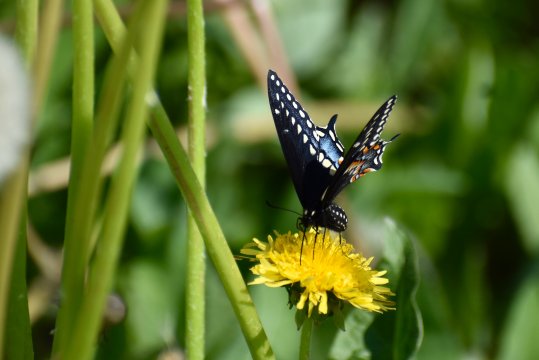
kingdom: Animalia
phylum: Arthropoda
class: Insecta
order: Lepidoptera
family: Papilionidae
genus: Papilio
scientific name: Papilio polyxenes
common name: Black Swallowtail
